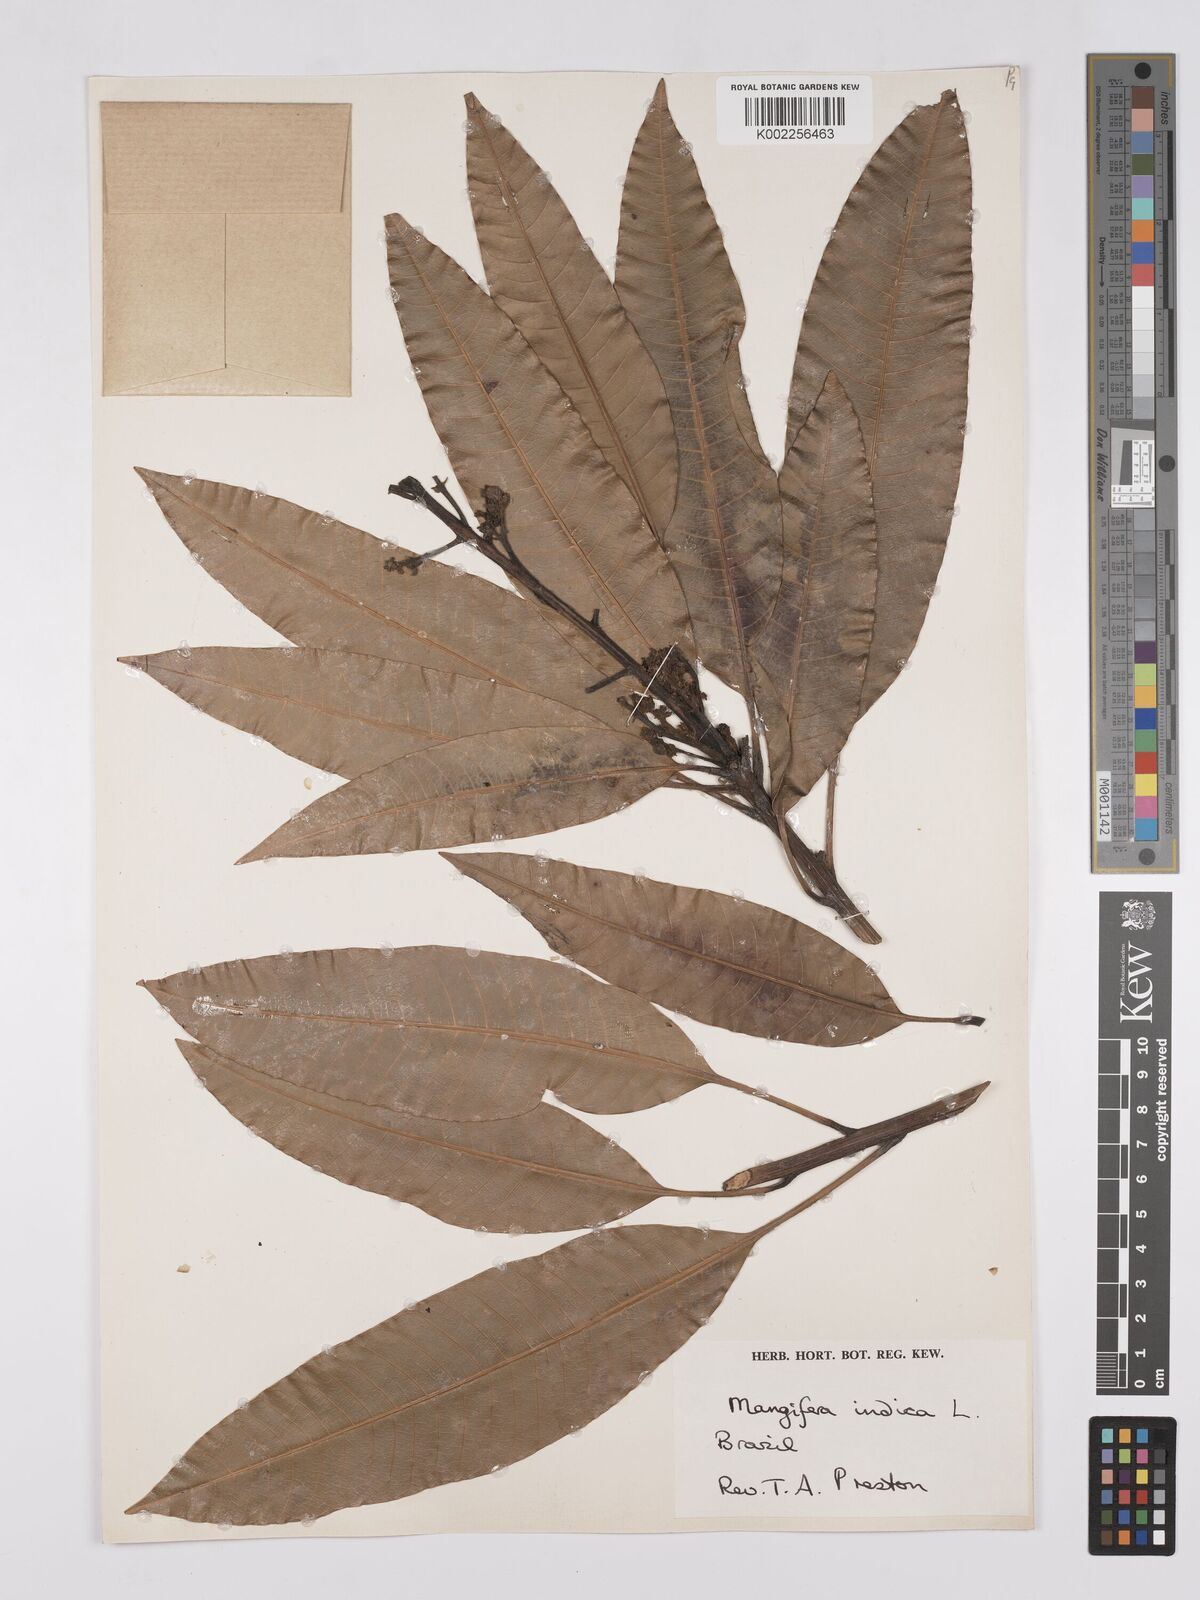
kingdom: Plantae
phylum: Tracheophyta
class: Magnoliopsida
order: Sapindales
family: Anacardiaceae
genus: Mangifera
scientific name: Mangifera indica
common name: Mango
